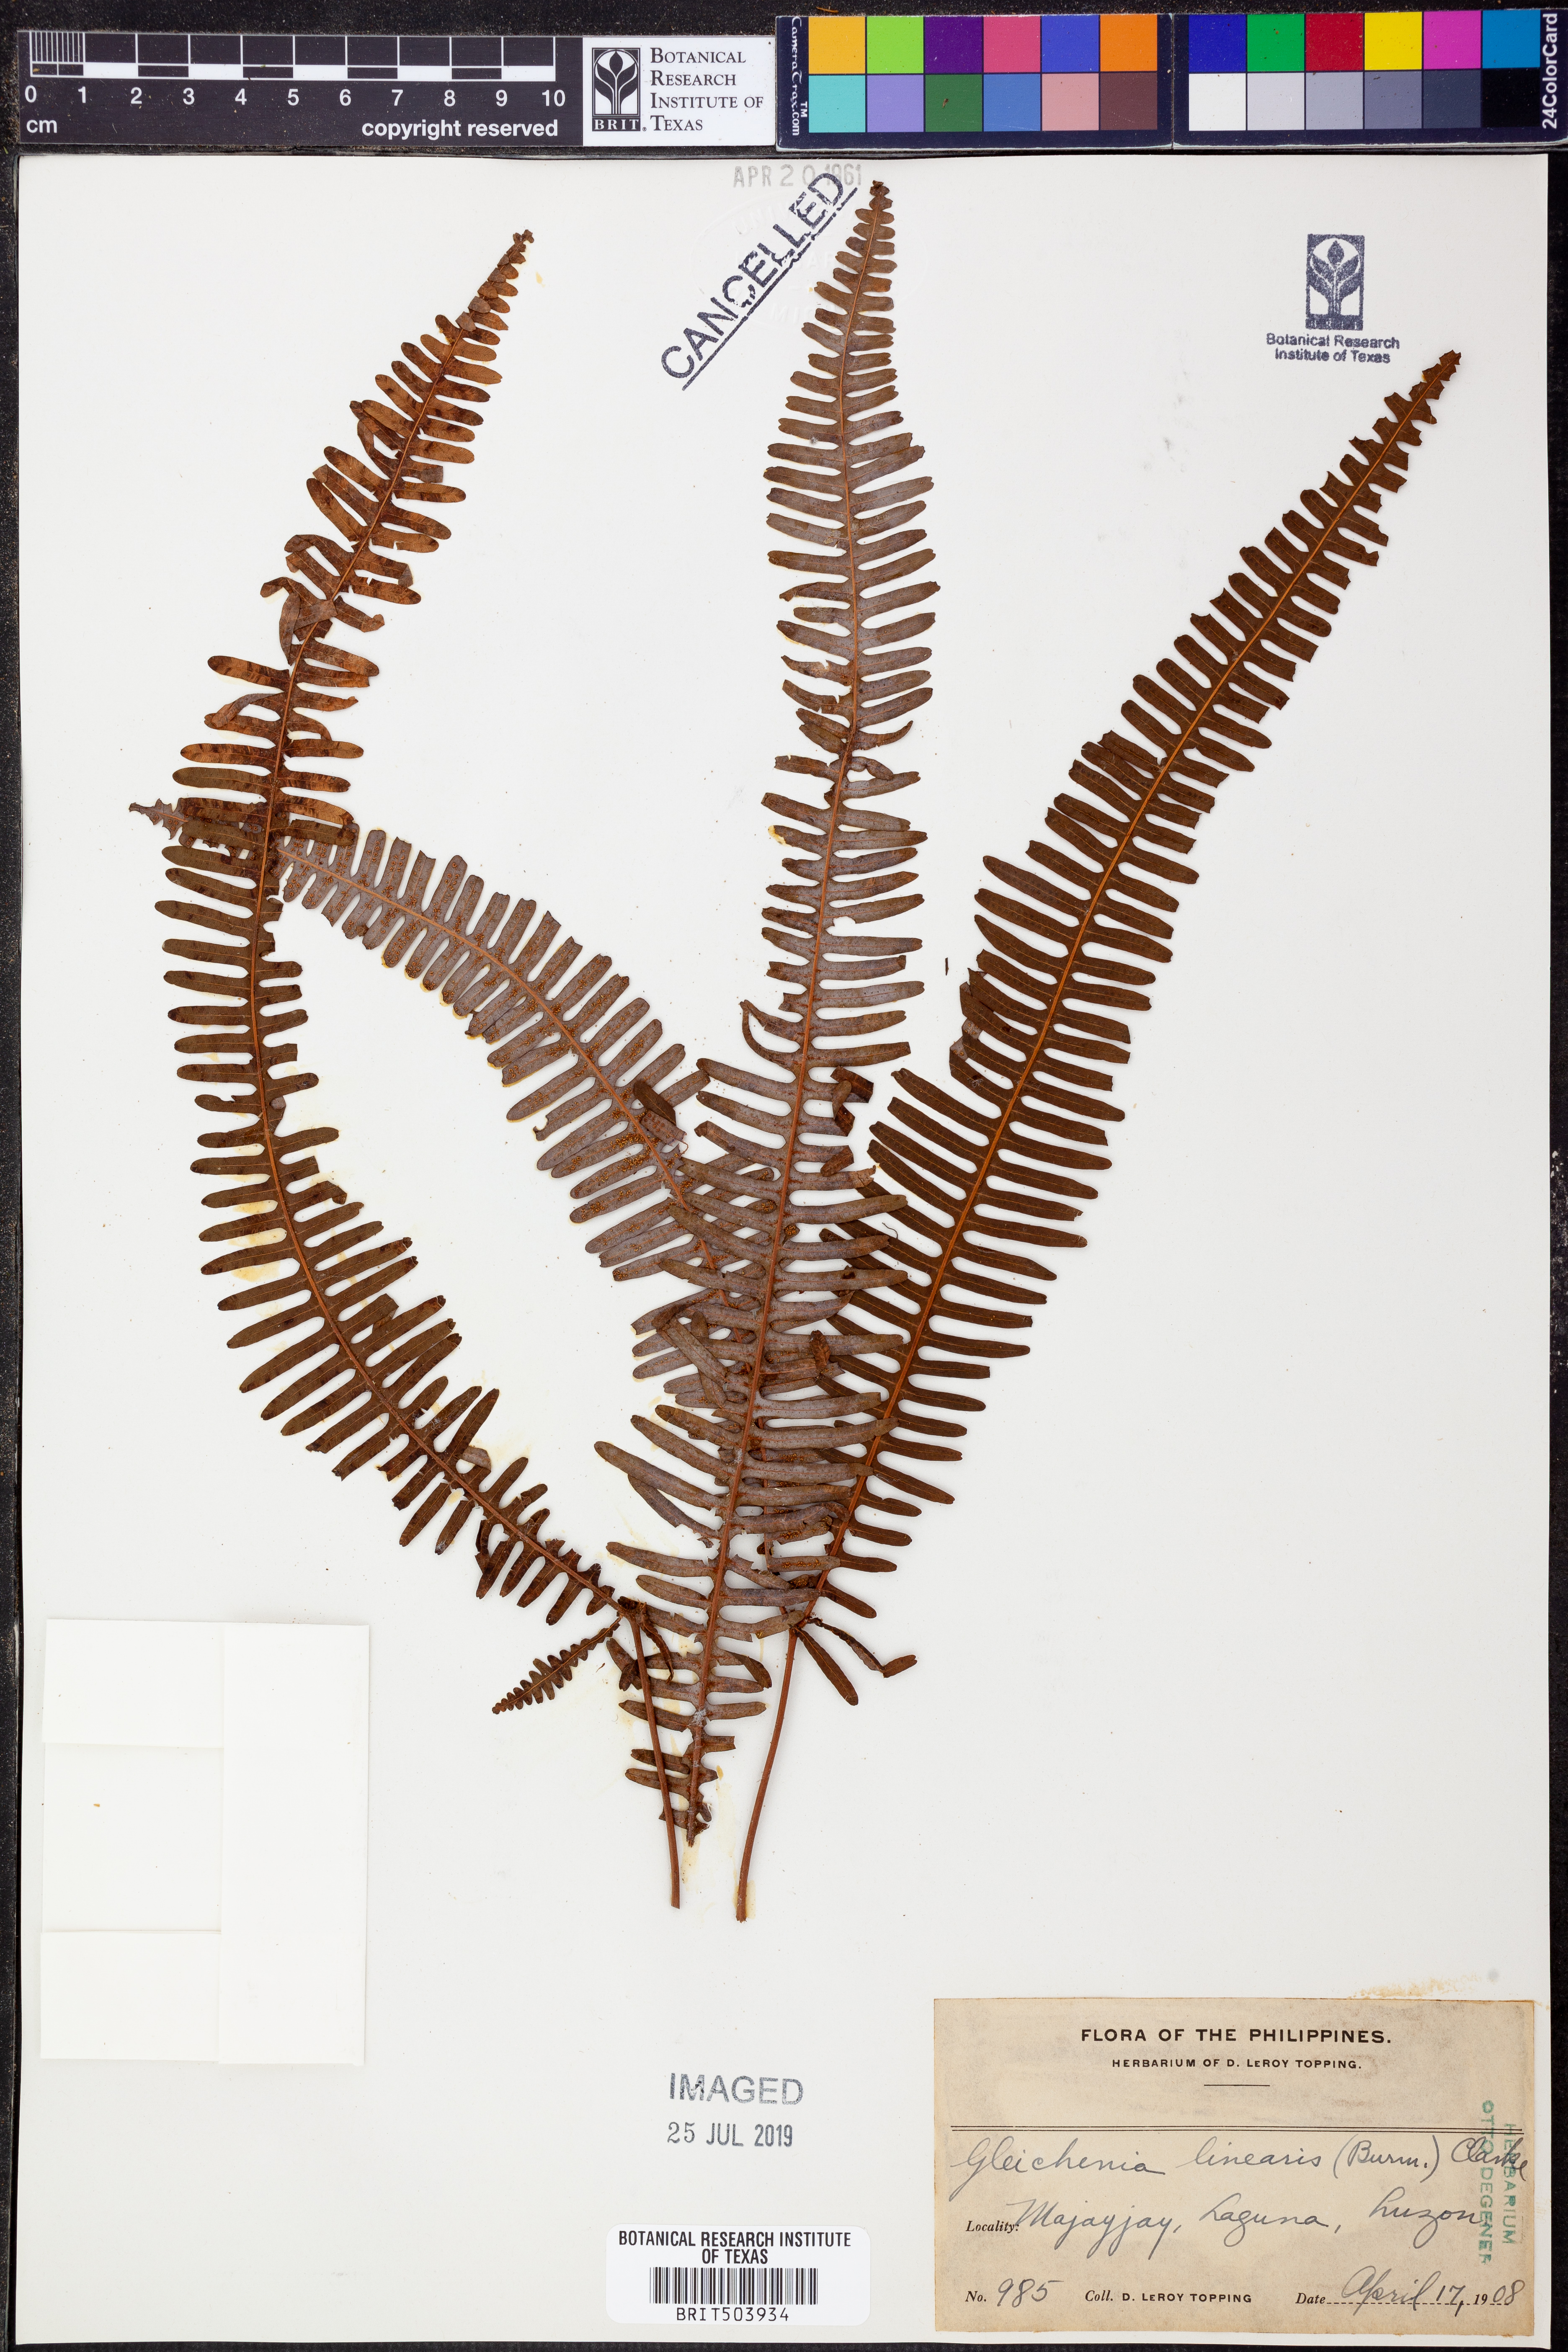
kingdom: Plantae
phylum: Tracheophyta
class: Polypodiopsida
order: Gleicheniales
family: Gleicheniaceae
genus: Dicranopteris
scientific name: Dicranopteris linearis
